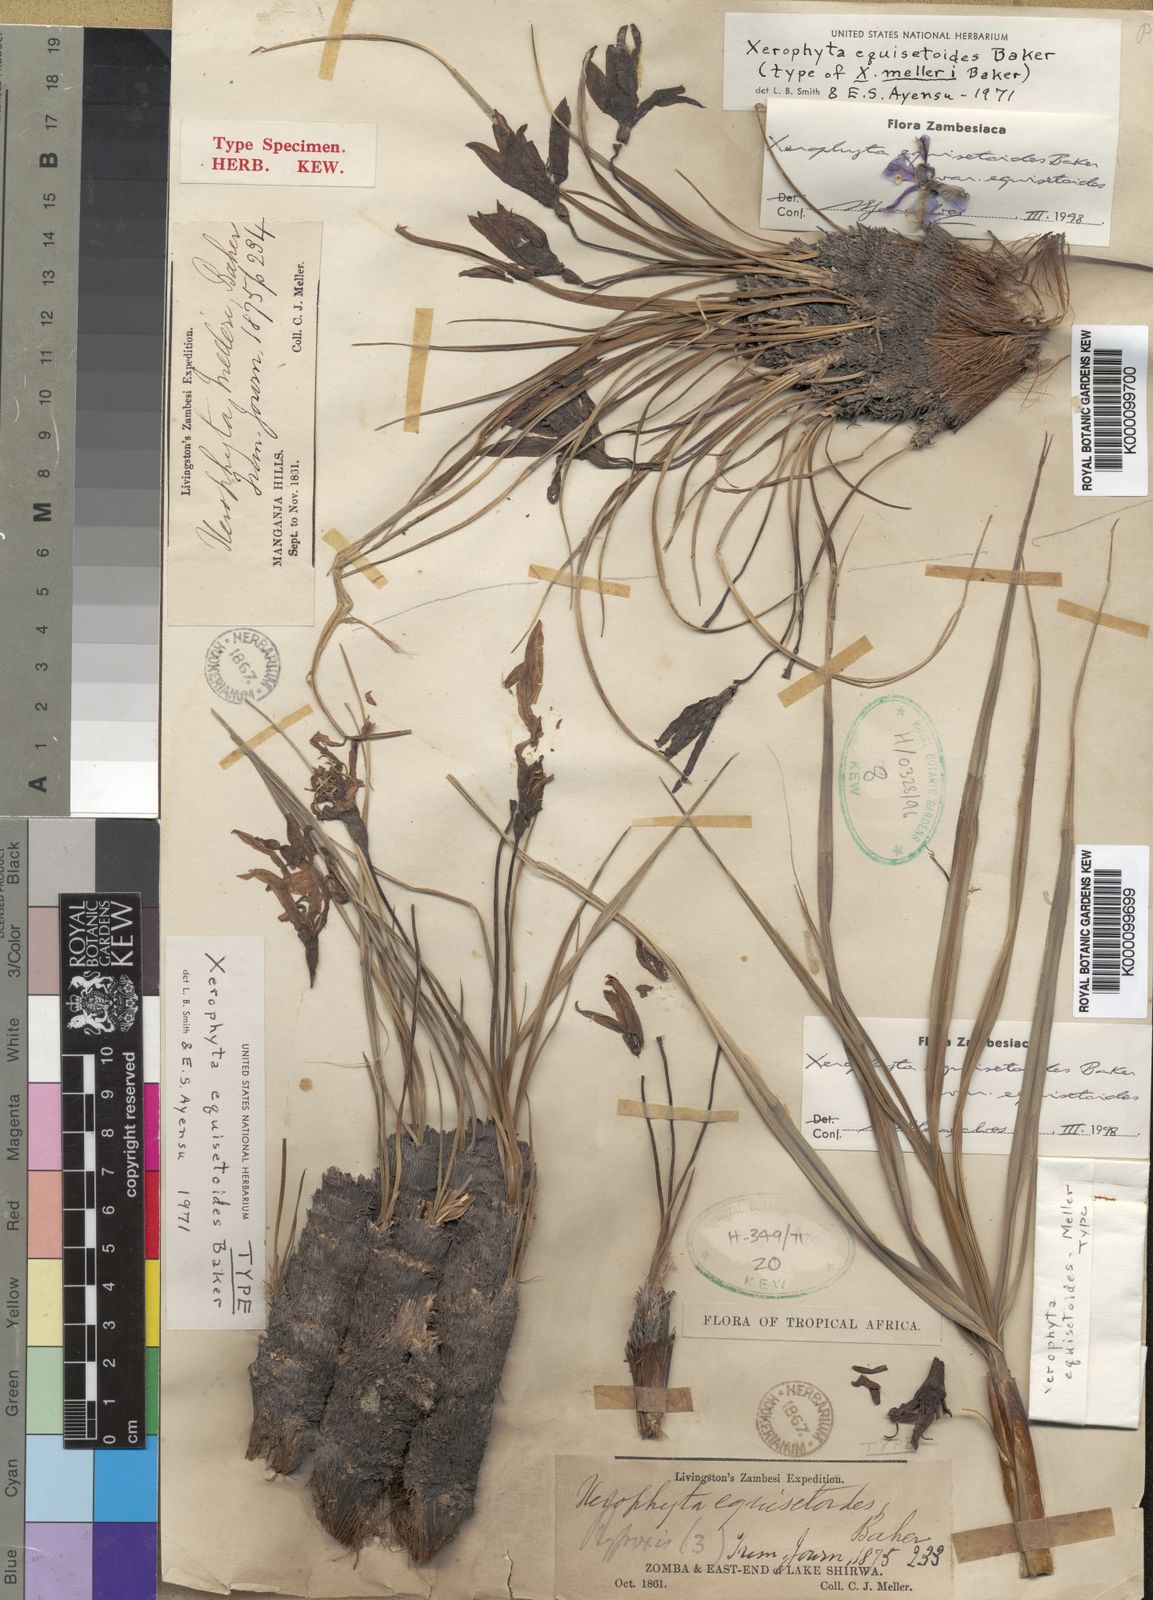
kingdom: Plantae
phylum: Tracheophyta
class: Liliopsida
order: Pandanales
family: Velloziaceae
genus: Xerophyta
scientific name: Xerophyta equisetoides
